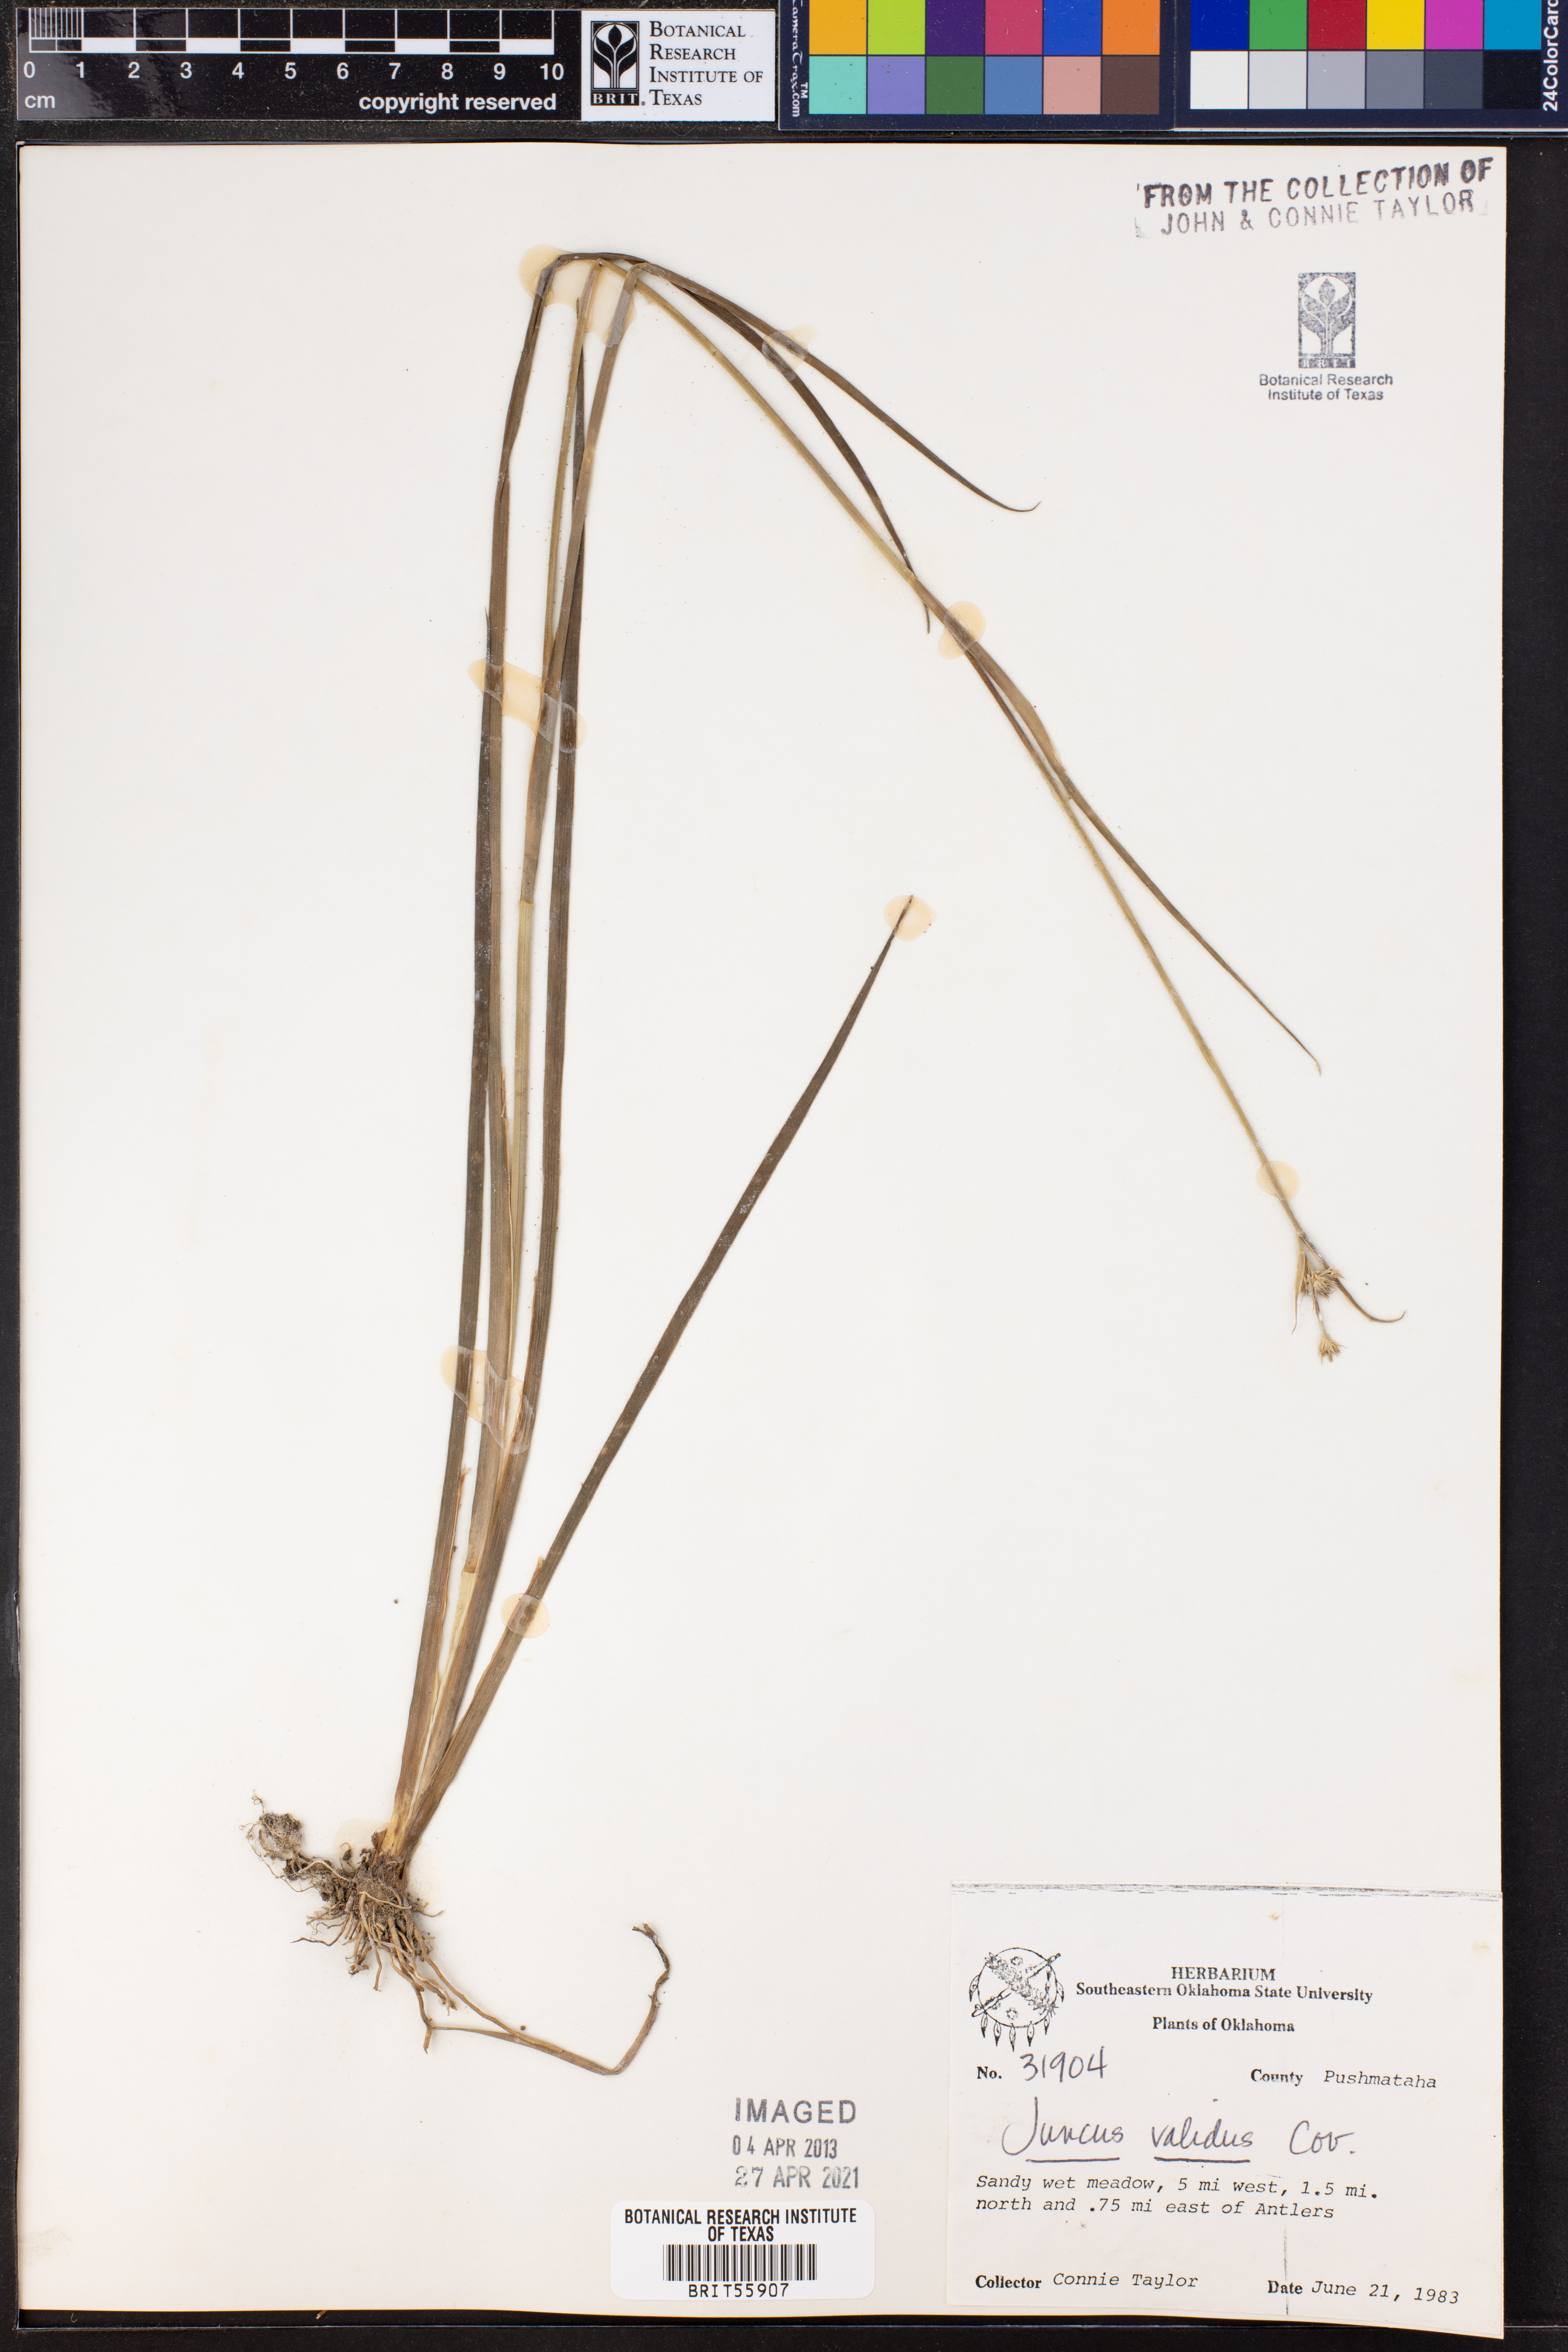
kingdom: Plantae
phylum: Tracheophyta
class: Liliopsida
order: Poales
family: Juncaceae
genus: Juncus
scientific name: Juncus validus
